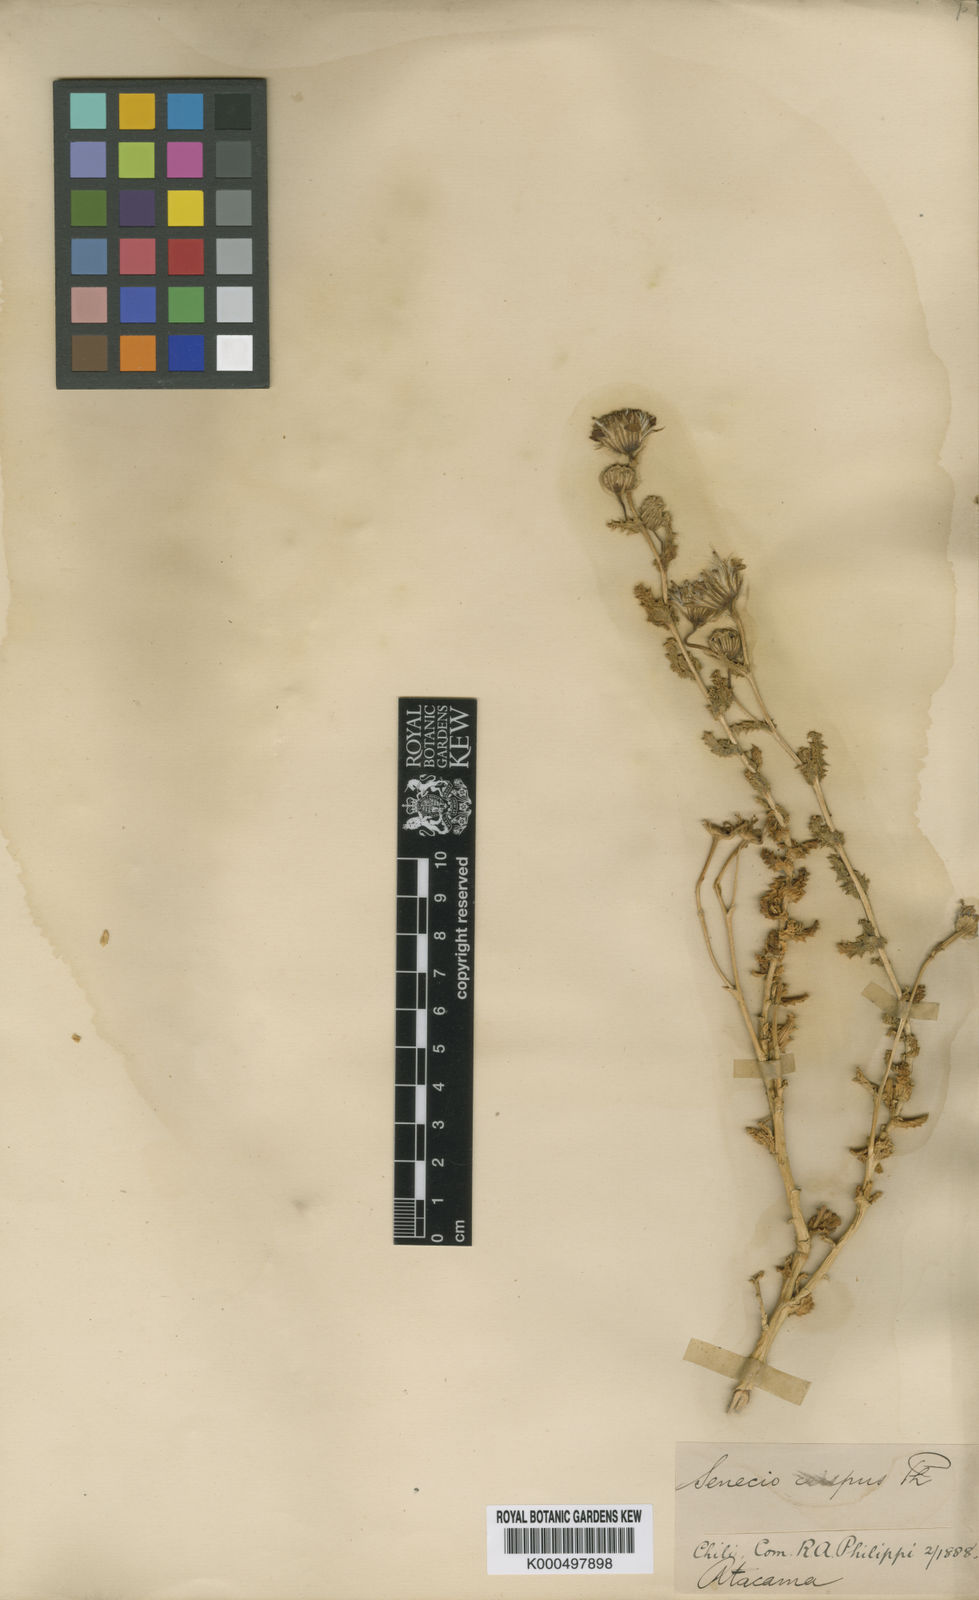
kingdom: Plantae
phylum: Tracheophyta
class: Magnoliopsida
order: Asterales
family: Asteraceae
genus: Senecio
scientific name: Senecio hirtus
